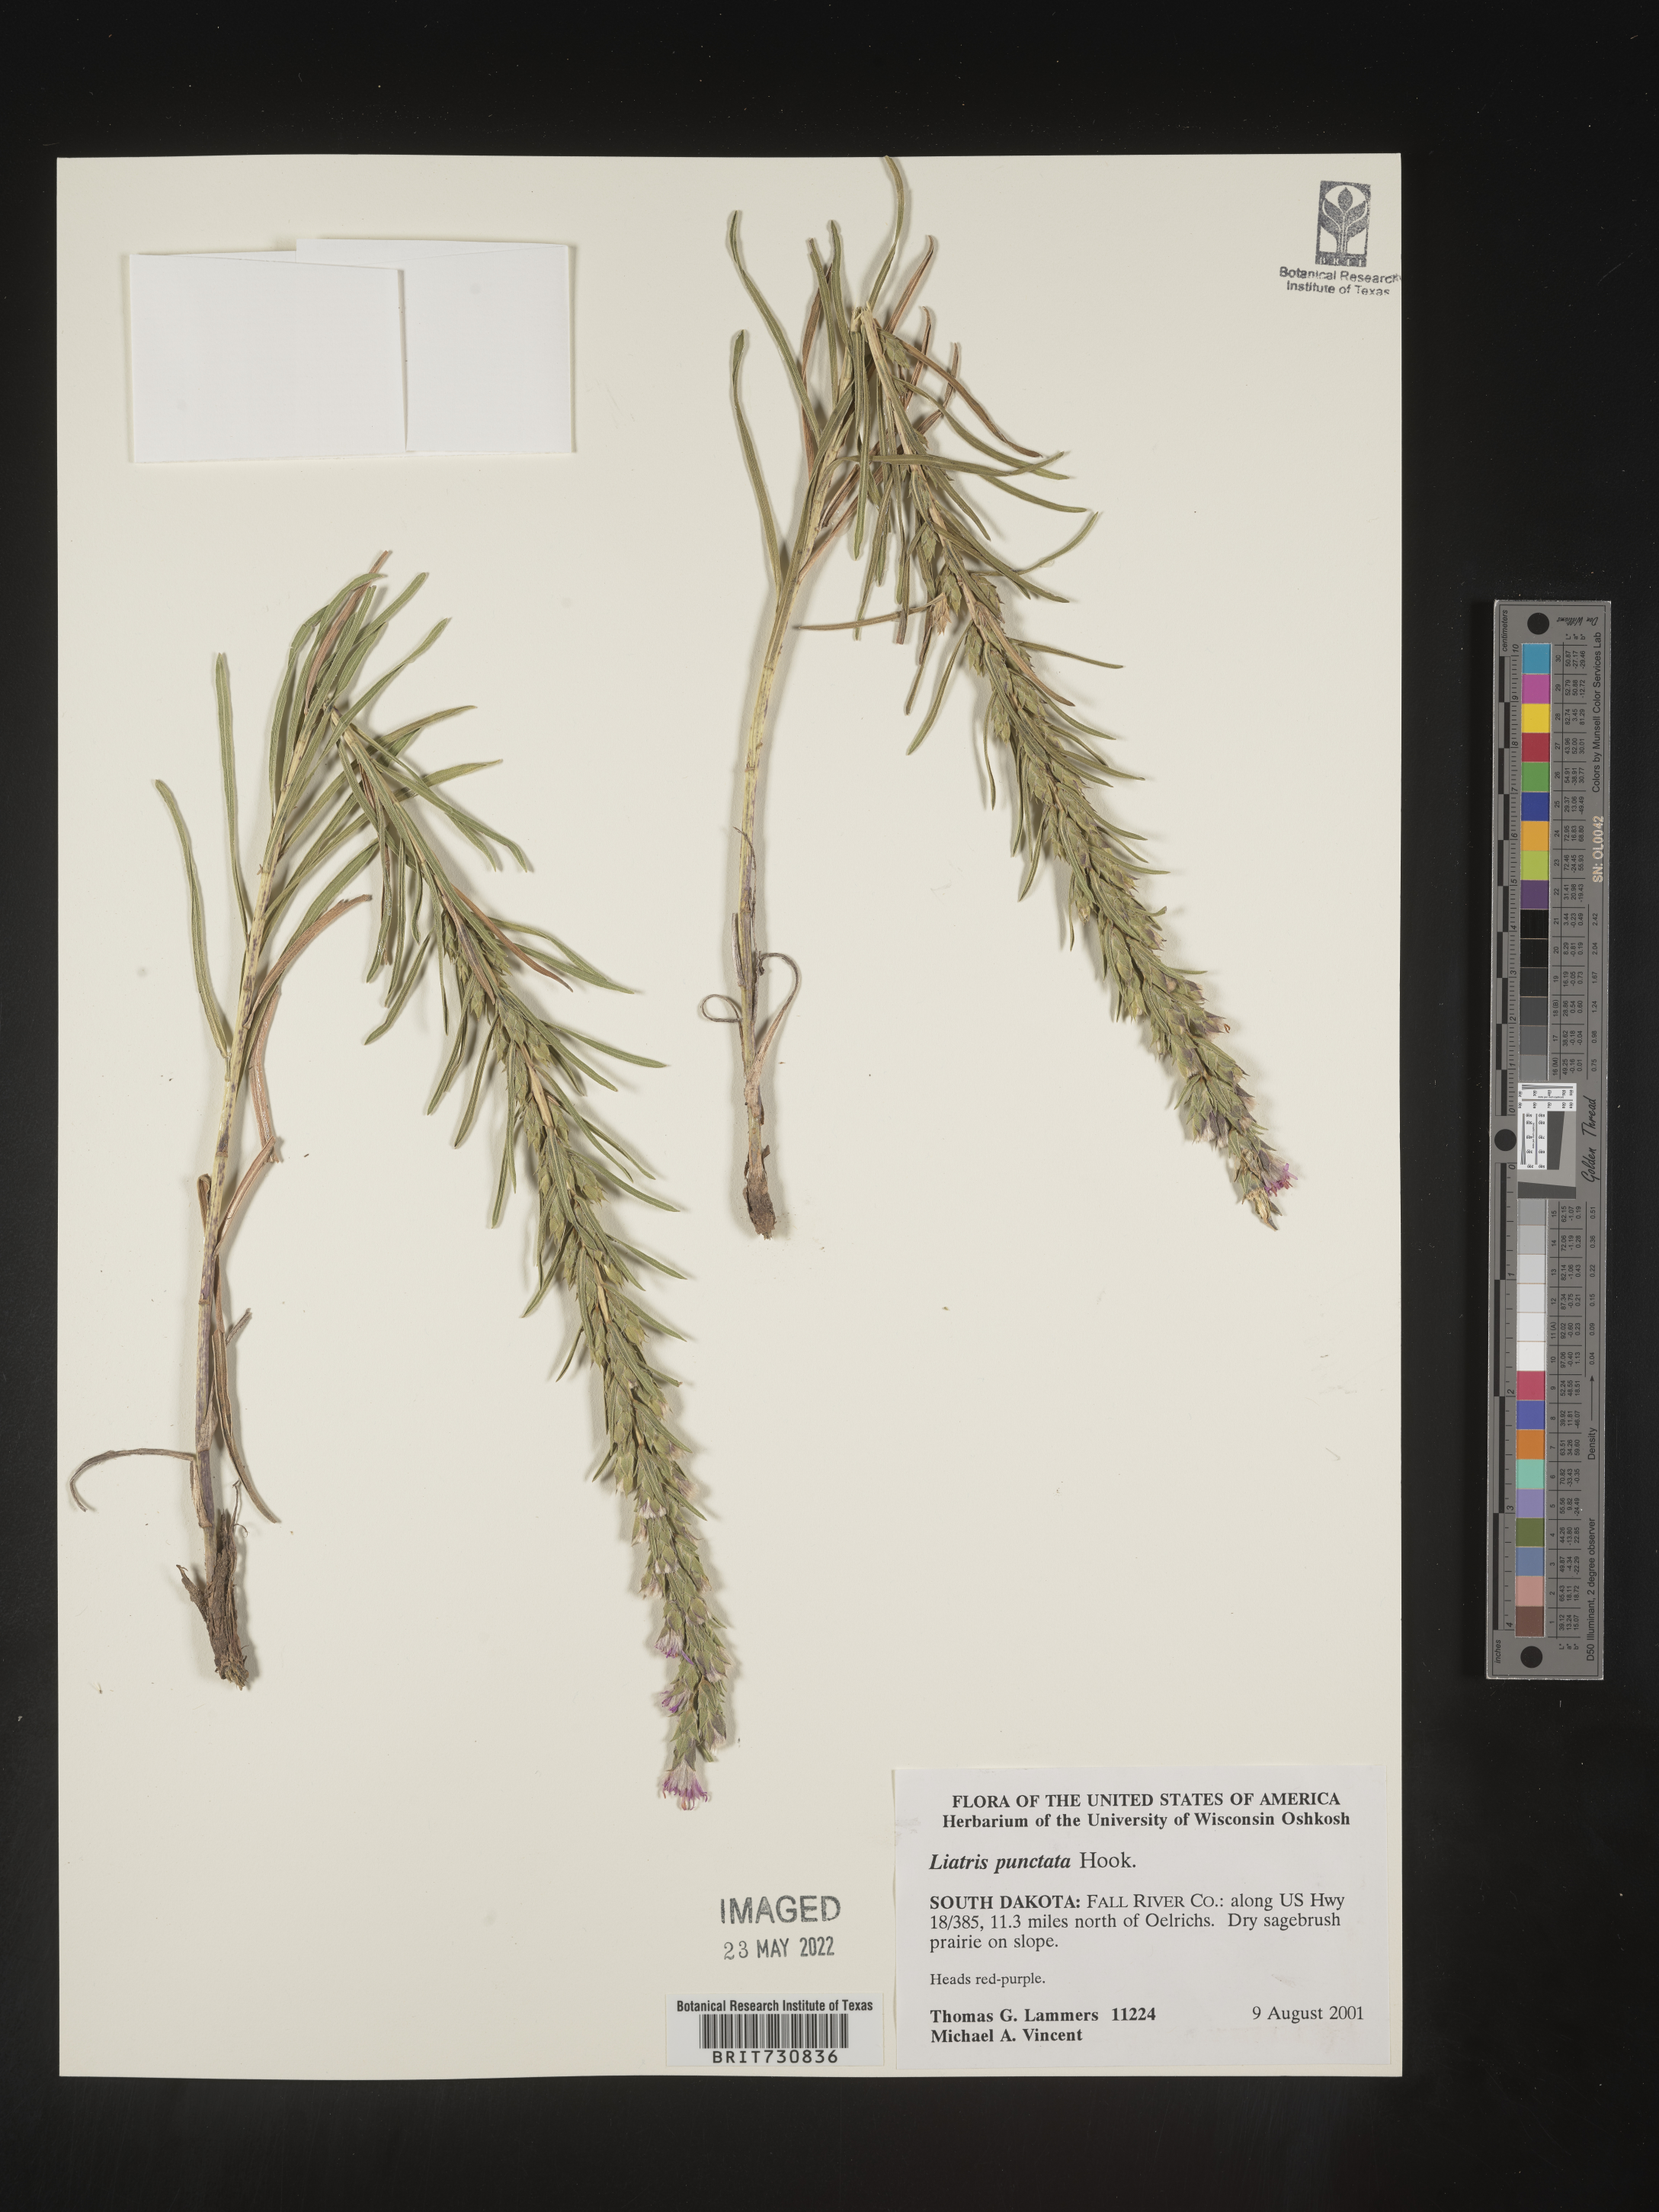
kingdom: Plantae
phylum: Tracheophyta
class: Magnoliopsida
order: Asterales
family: Asteraceae
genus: Liatris
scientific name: Liatris punctata
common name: Dotted gayfeather
